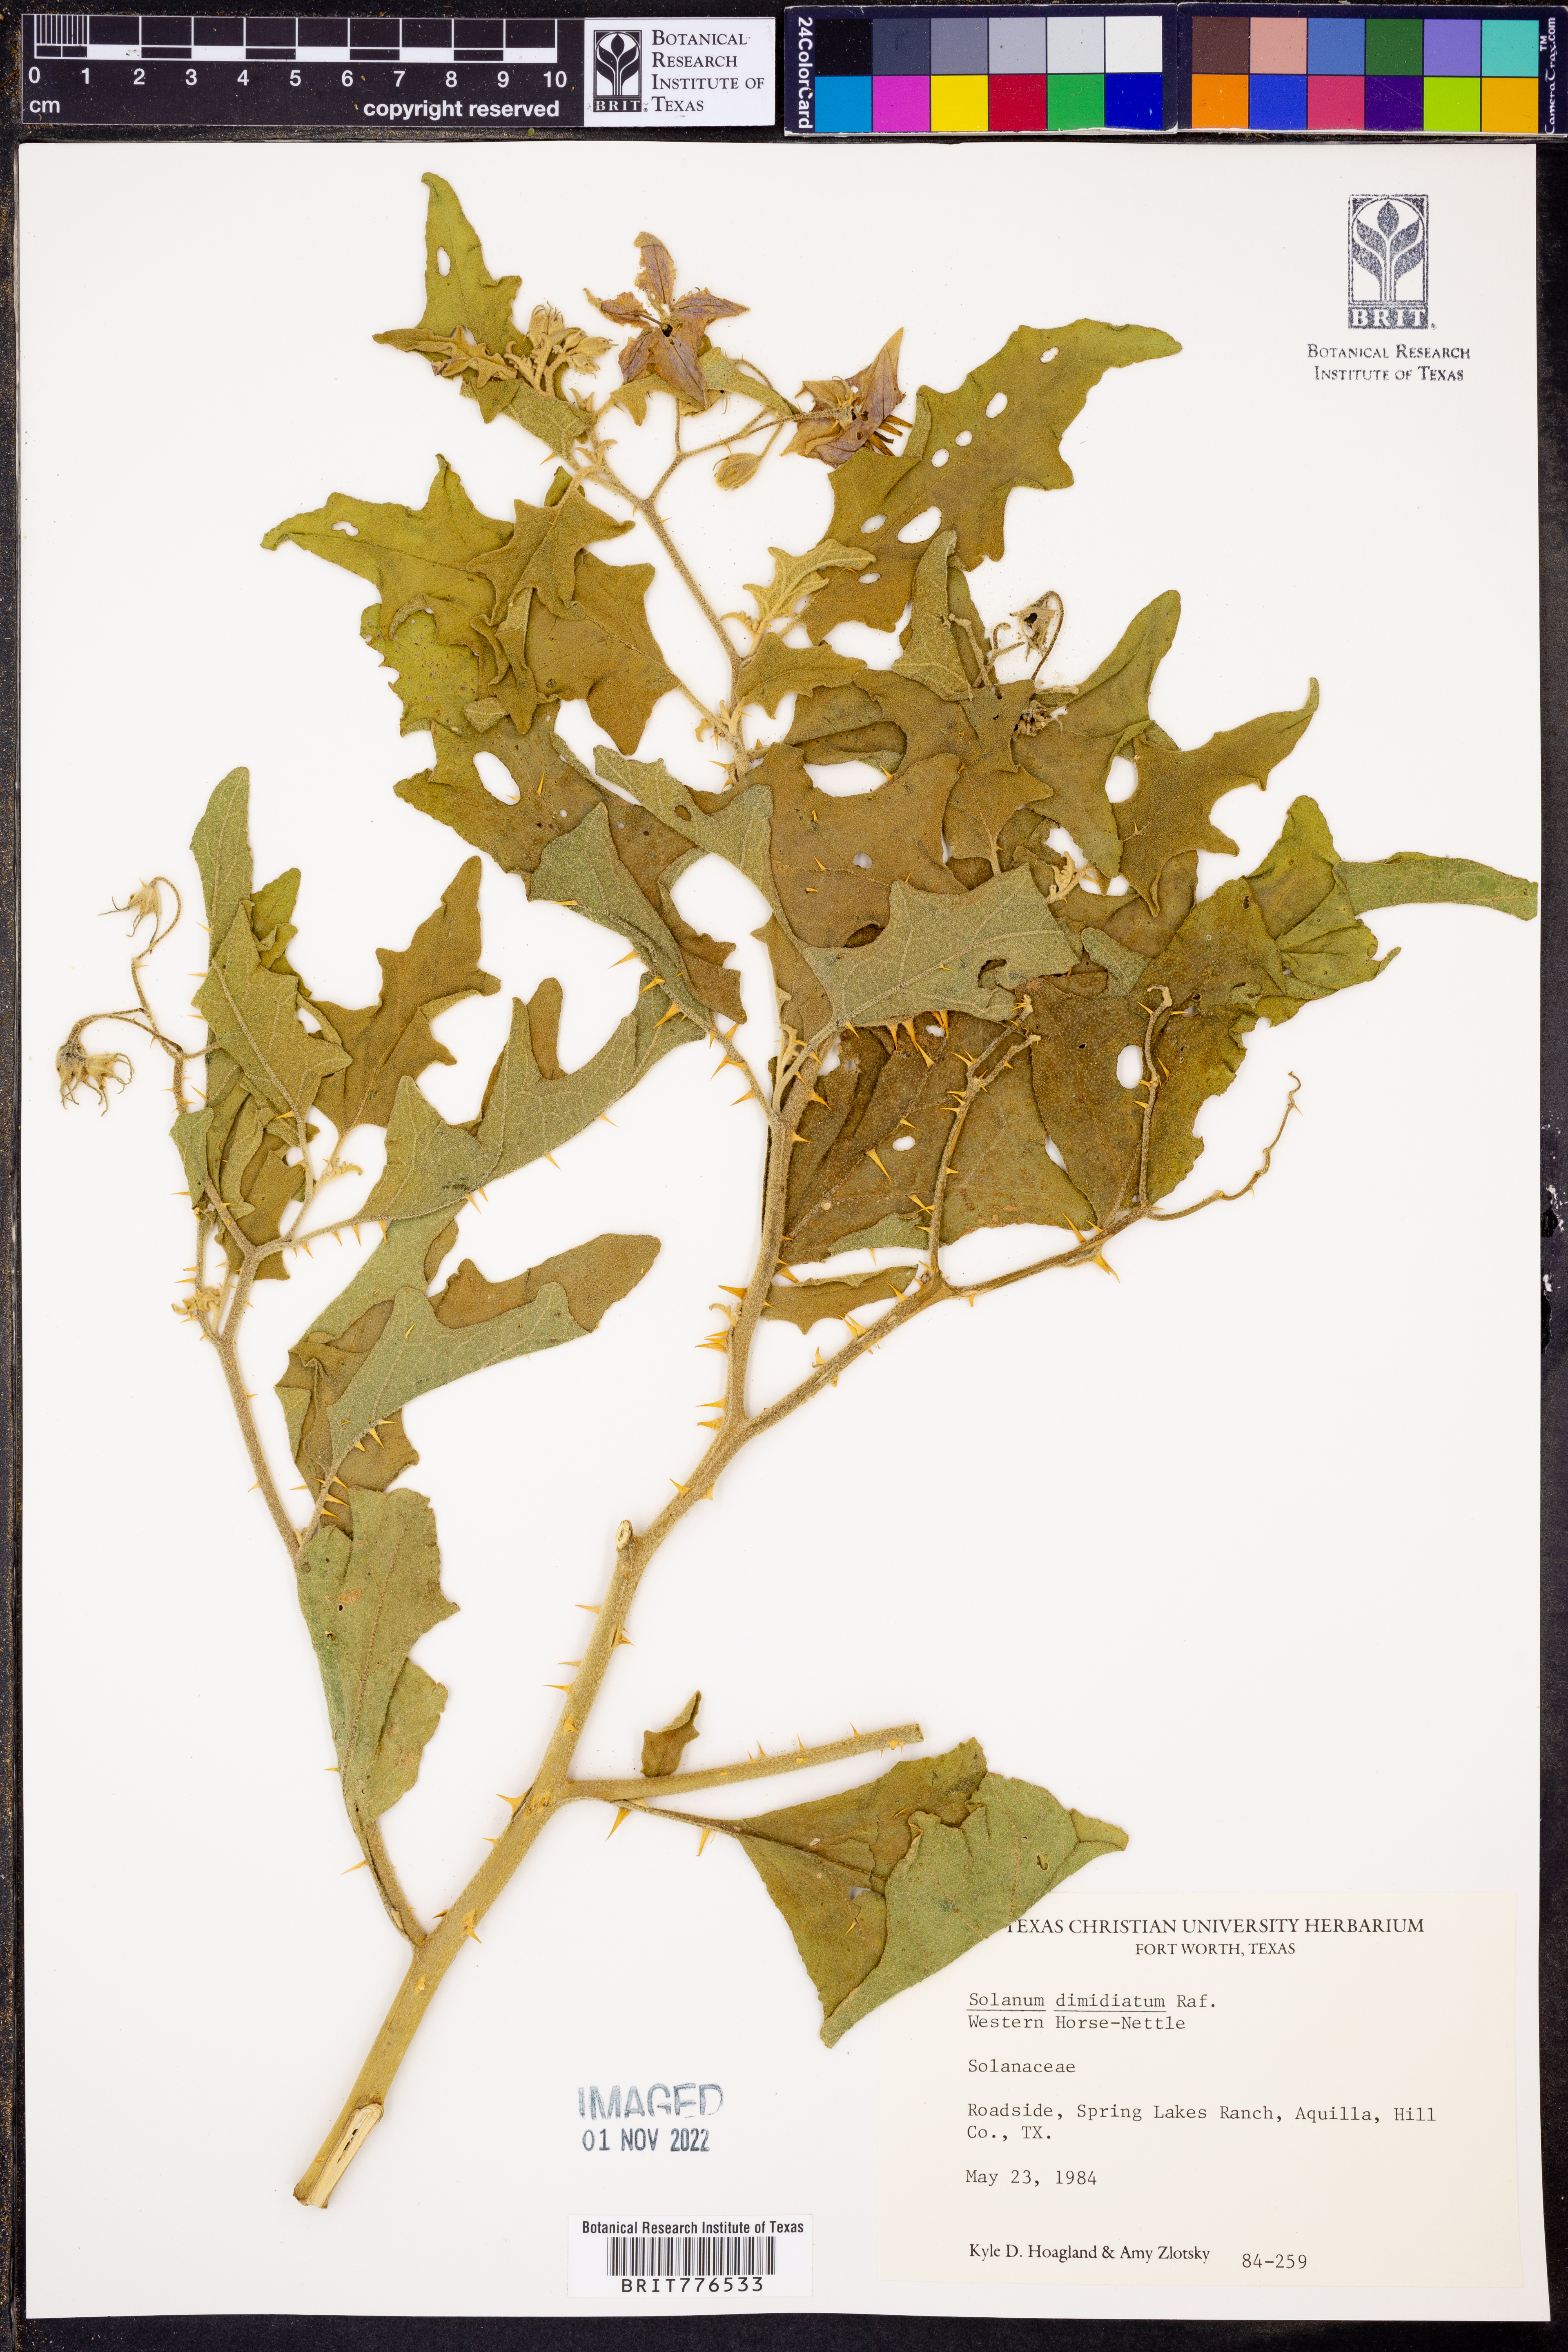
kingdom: Plantae
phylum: Tracheophyta
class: Magnoliopsida
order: Solanales
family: Solanaceae
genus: Solanum
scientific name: Solanum dimidiatum
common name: Carolina horse-nettle
